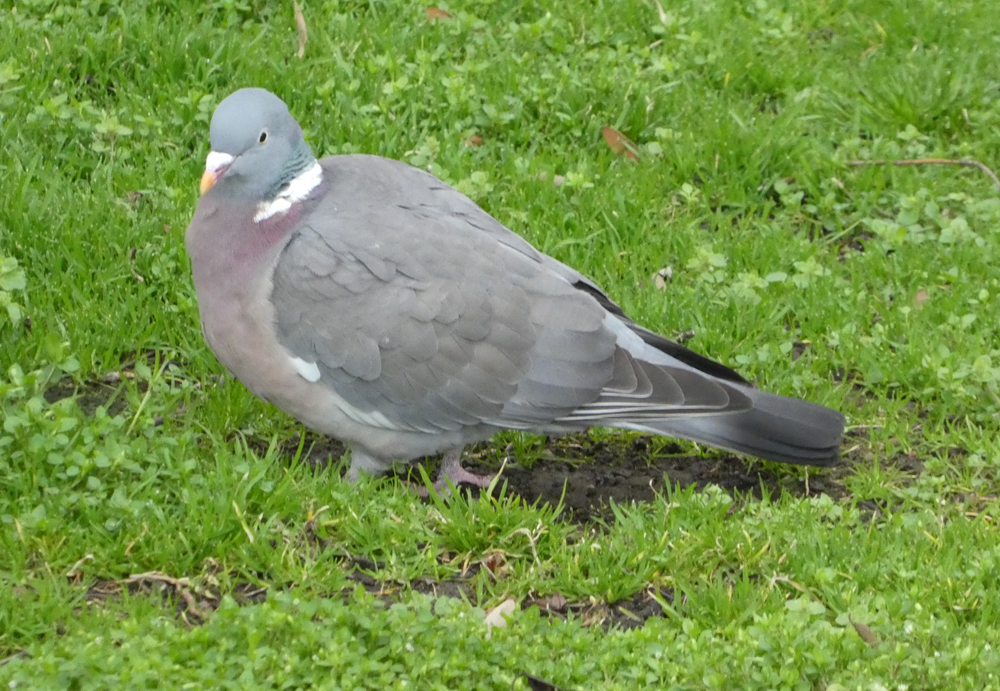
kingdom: Animalia
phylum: Chordata
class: Aves
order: Columbiformes
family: Columbidae
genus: Columba
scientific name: Columba palumbus
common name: Common wood pigeon
